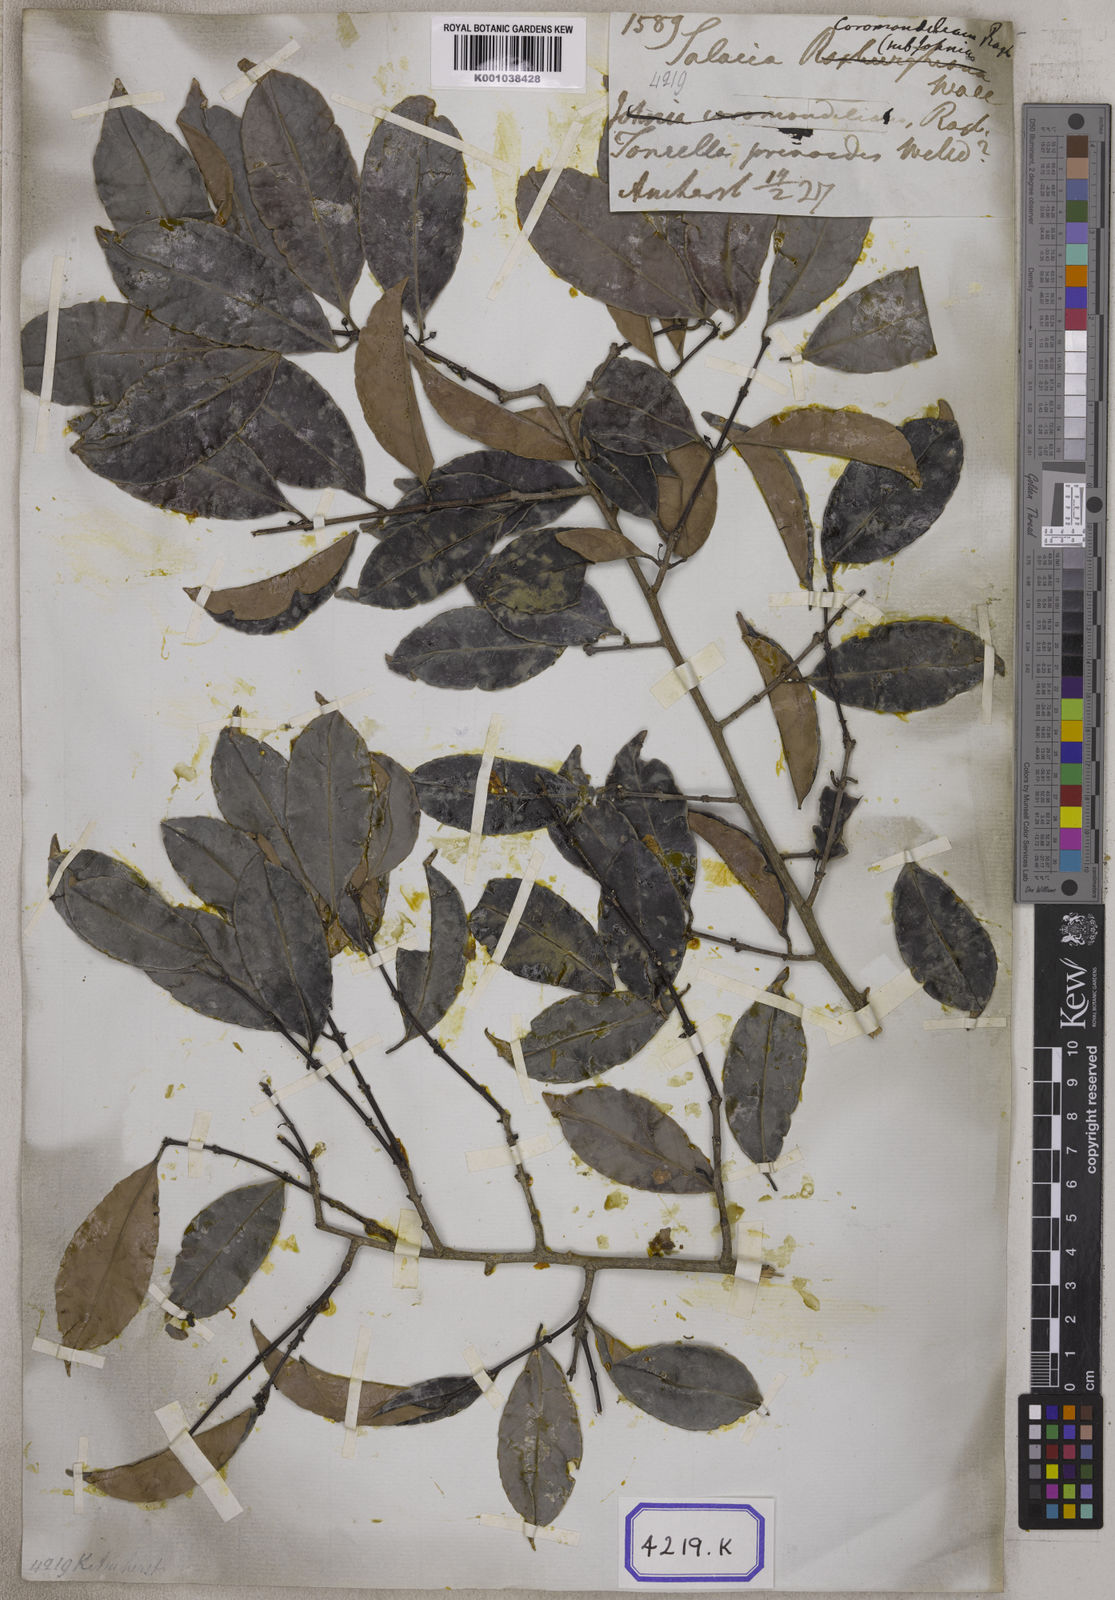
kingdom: Plantae
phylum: Tracheophyta
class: Magnoliopsida
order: Celastrales
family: Celastraceae
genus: Salacia
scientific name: Salacia chinensis
